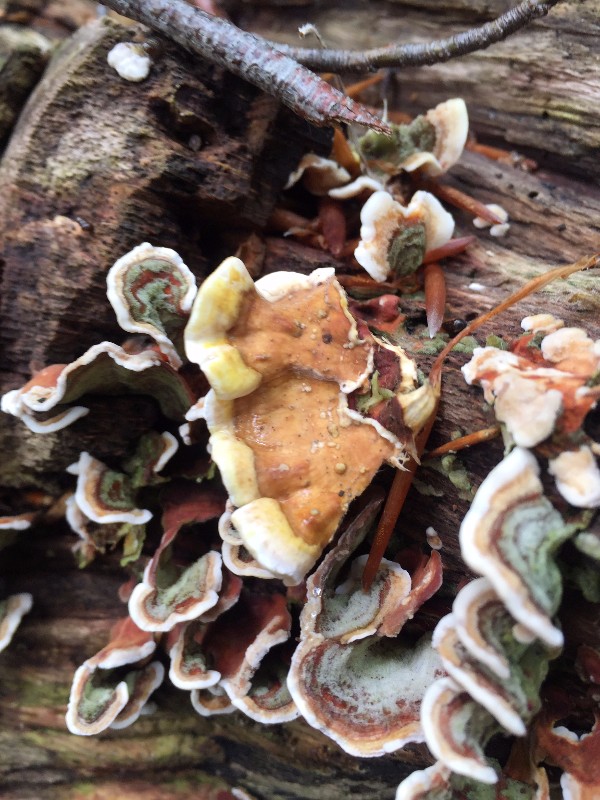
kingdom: Fungi
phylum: Basidiomycota
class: Agaricomycetes
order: Russulales
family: Stereaceae
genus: Stereum
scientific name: Stereum subtomentosum
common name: smuk lædersvamp
